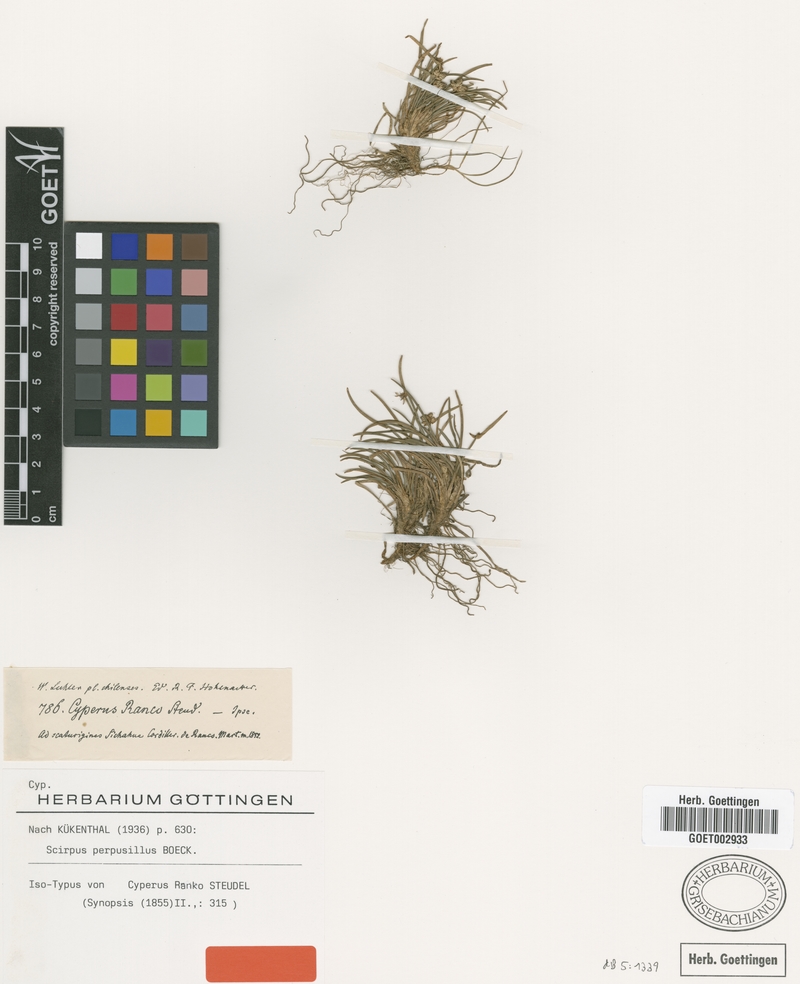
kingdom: Plantae
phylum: Tracheophyta
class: Liliopsida
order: Poales
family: Cyperaceae
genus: Isolepis
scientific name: Isolepis ranko
